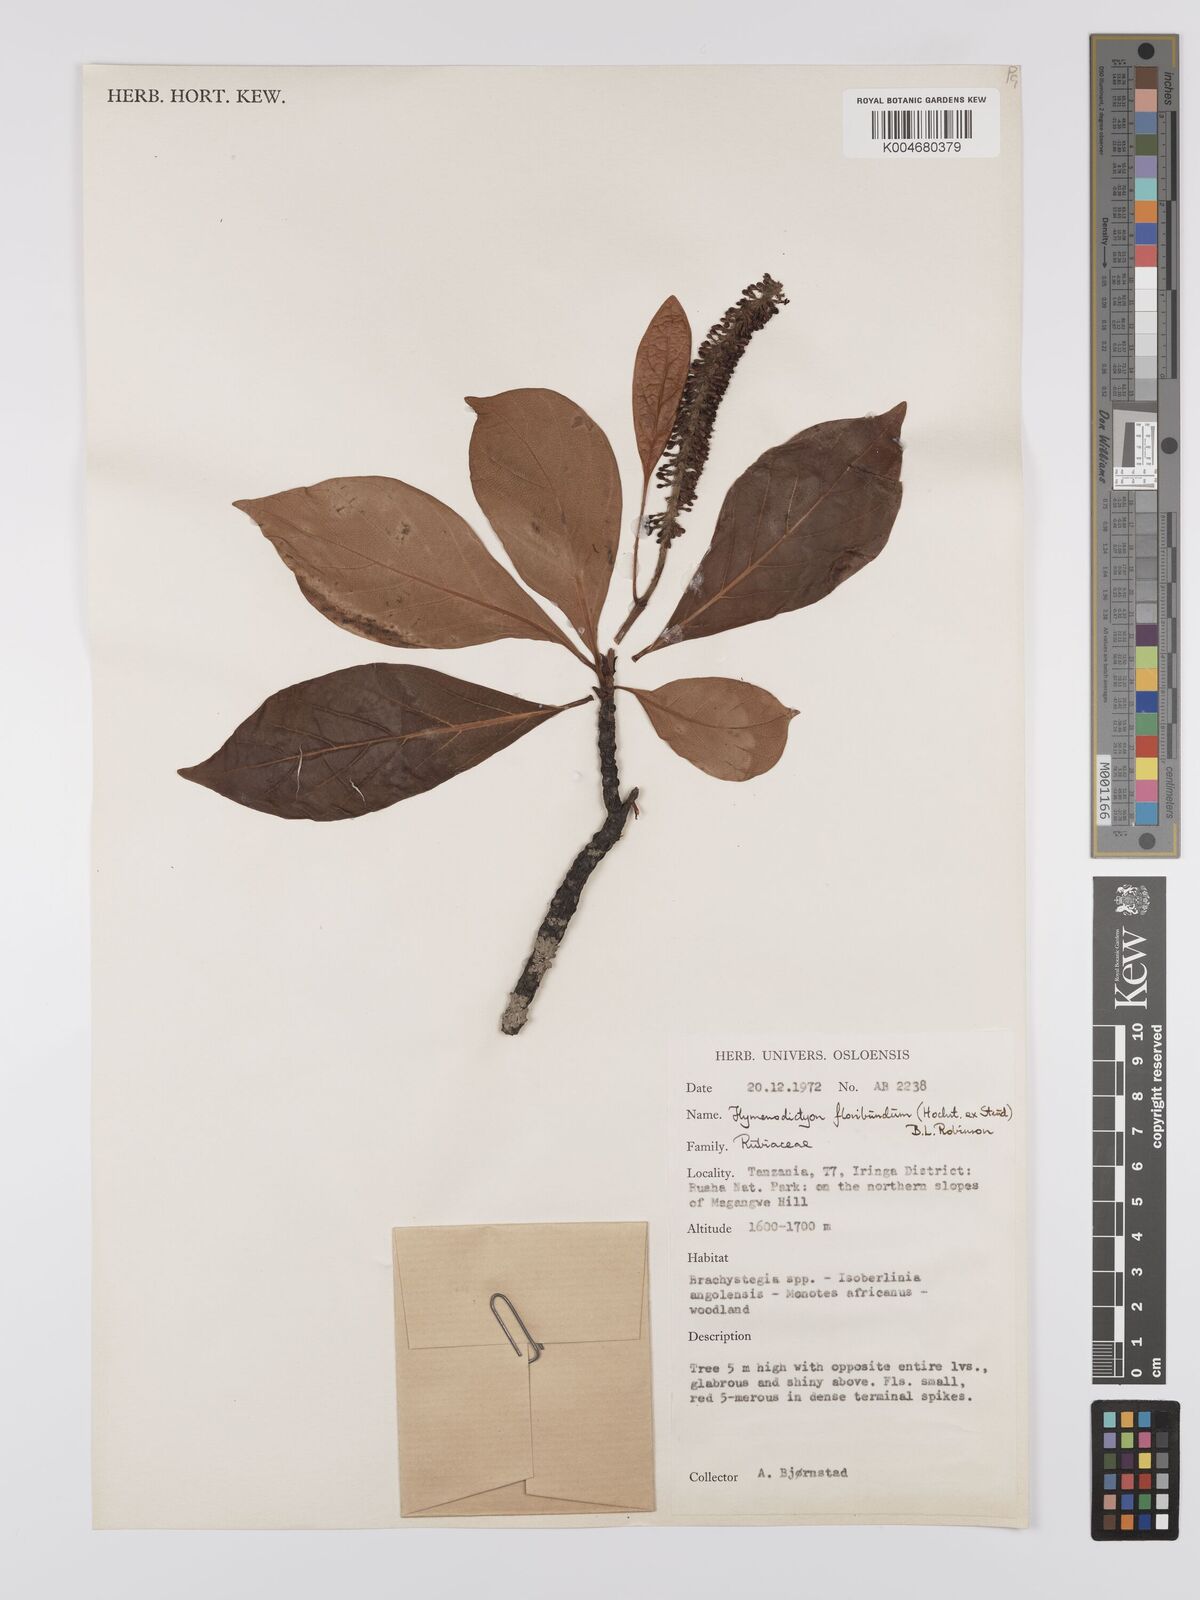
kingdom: Plantae
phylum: Tracheophyta
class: Magnoliopsida
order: Gentianales
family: Rubiaceae
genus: Hymenodictyon
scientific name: Hymenodictyon floribundum
